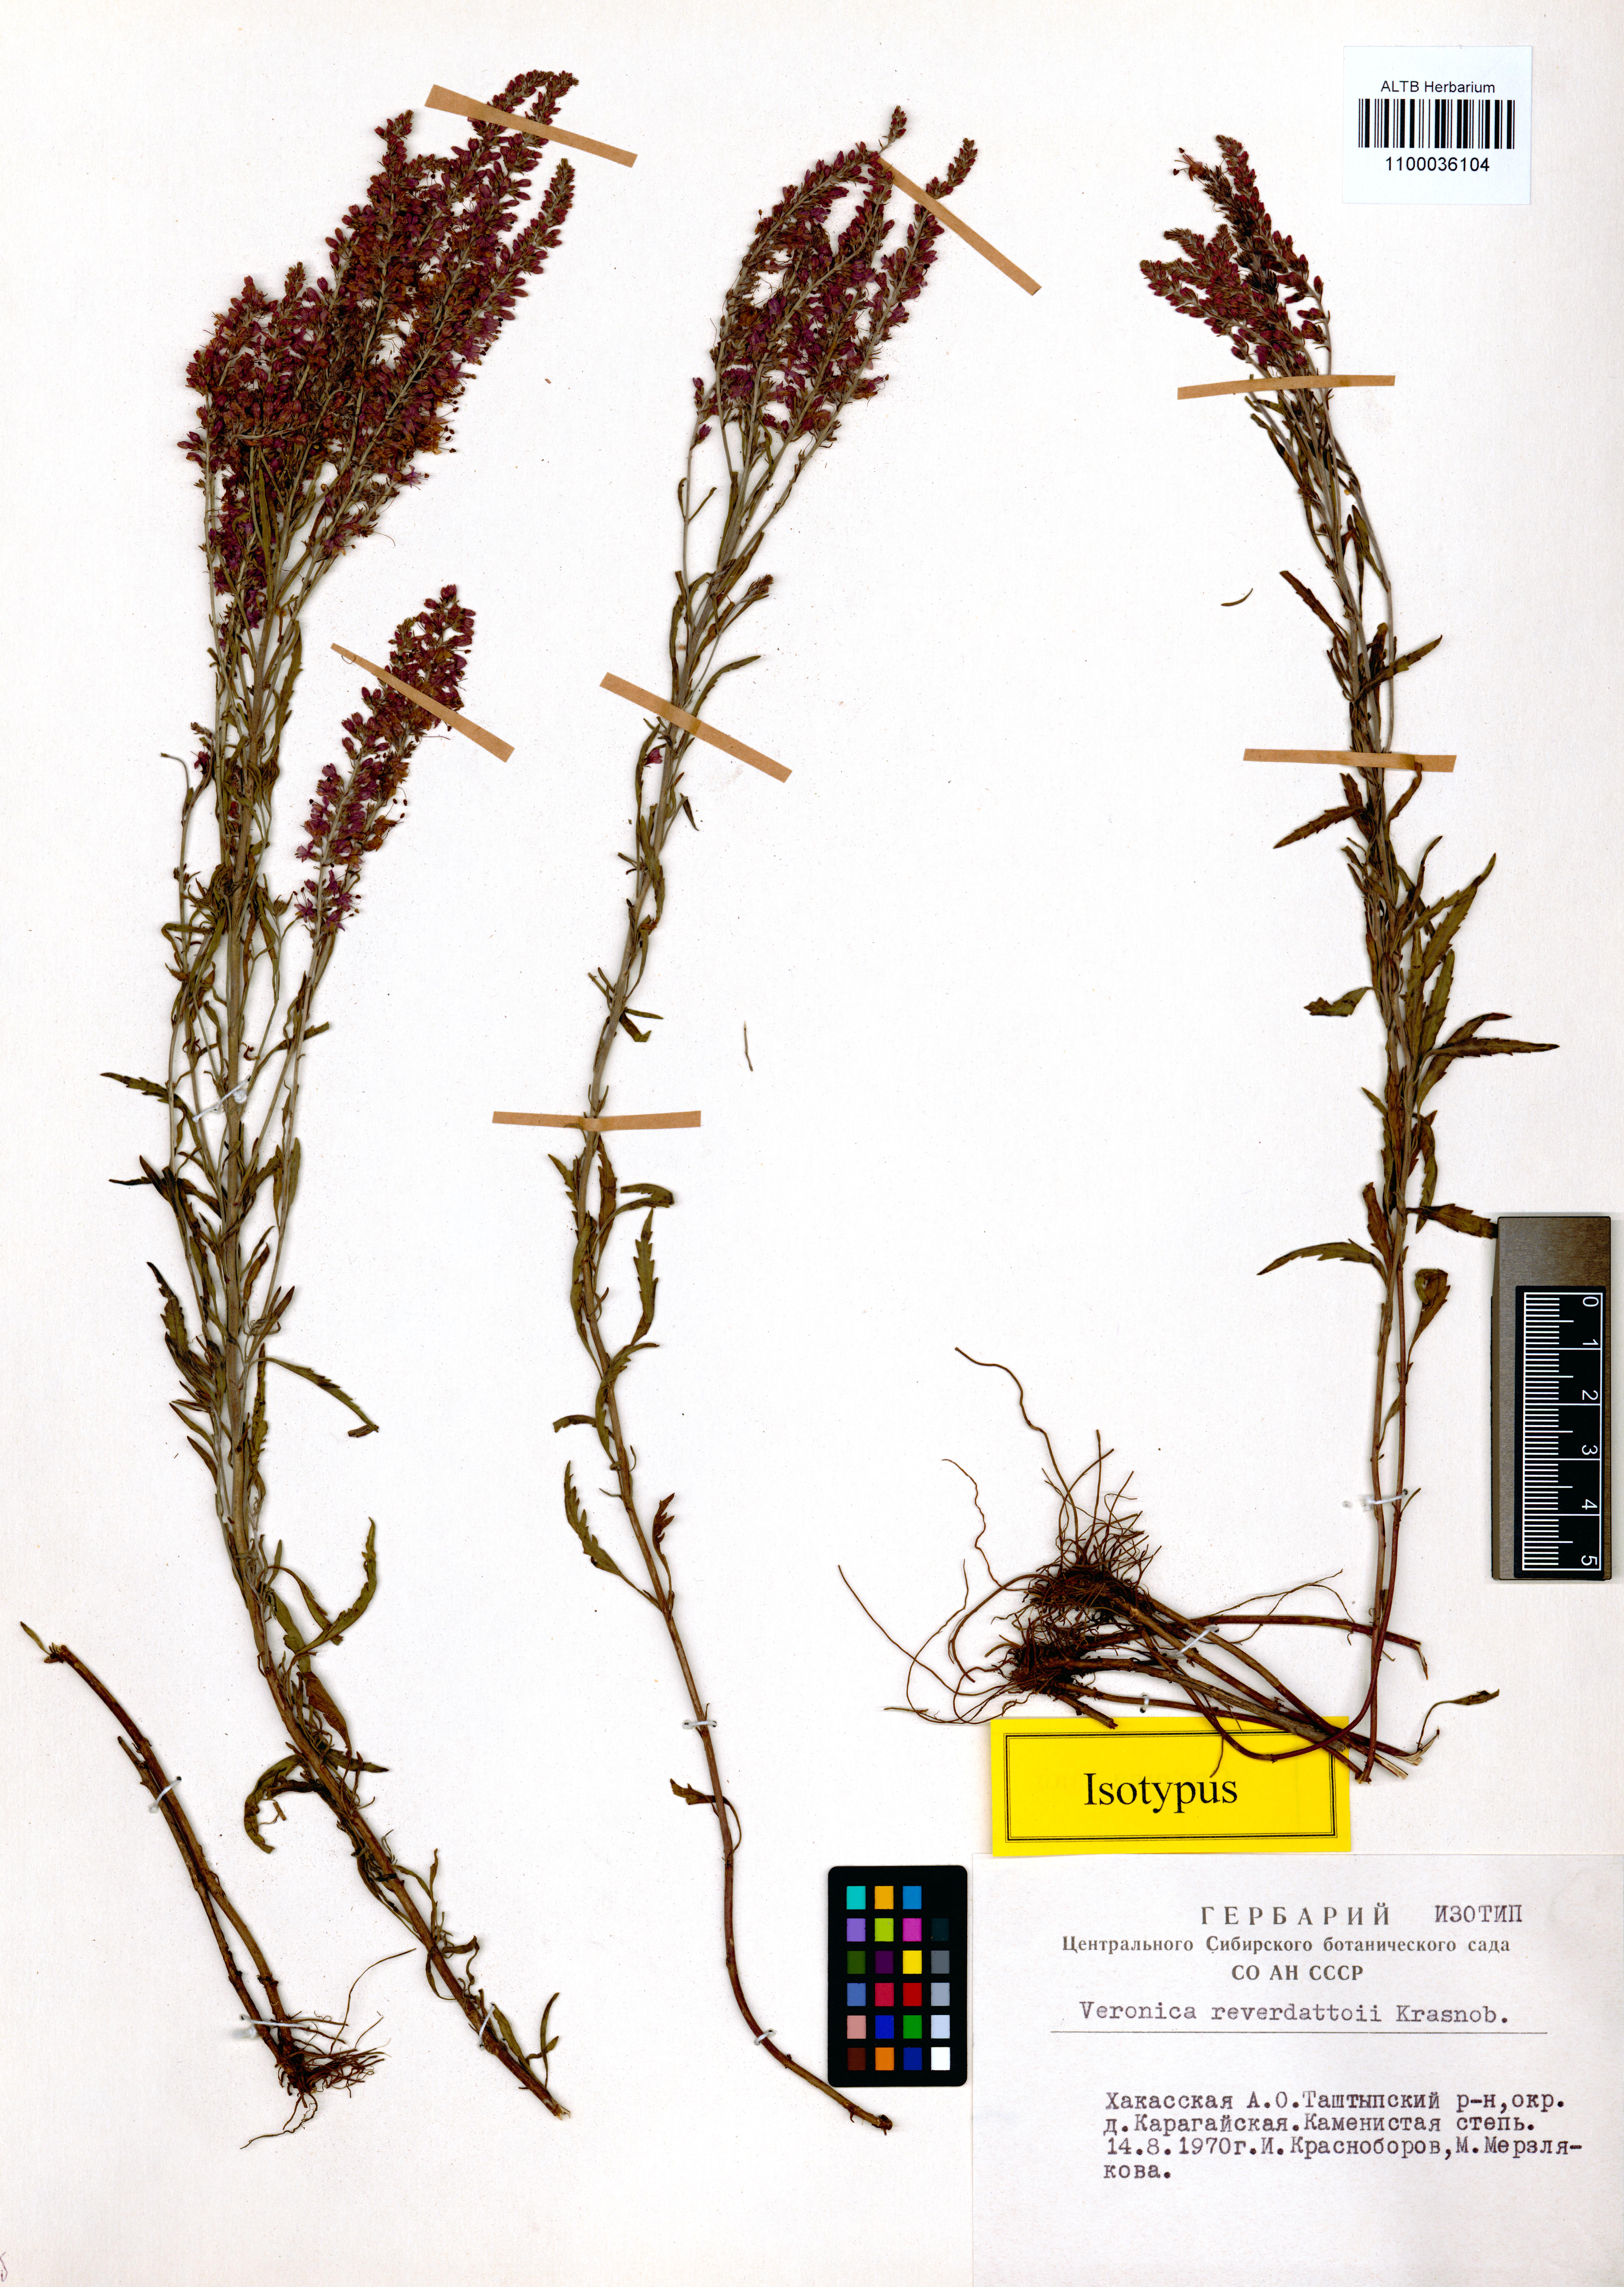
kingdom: Plantae
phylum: Tracheophyta
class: Magnoliopsida
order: Lamiales
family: Plantaginaceae
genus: Veronica
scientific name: Veronica reverdattoi
